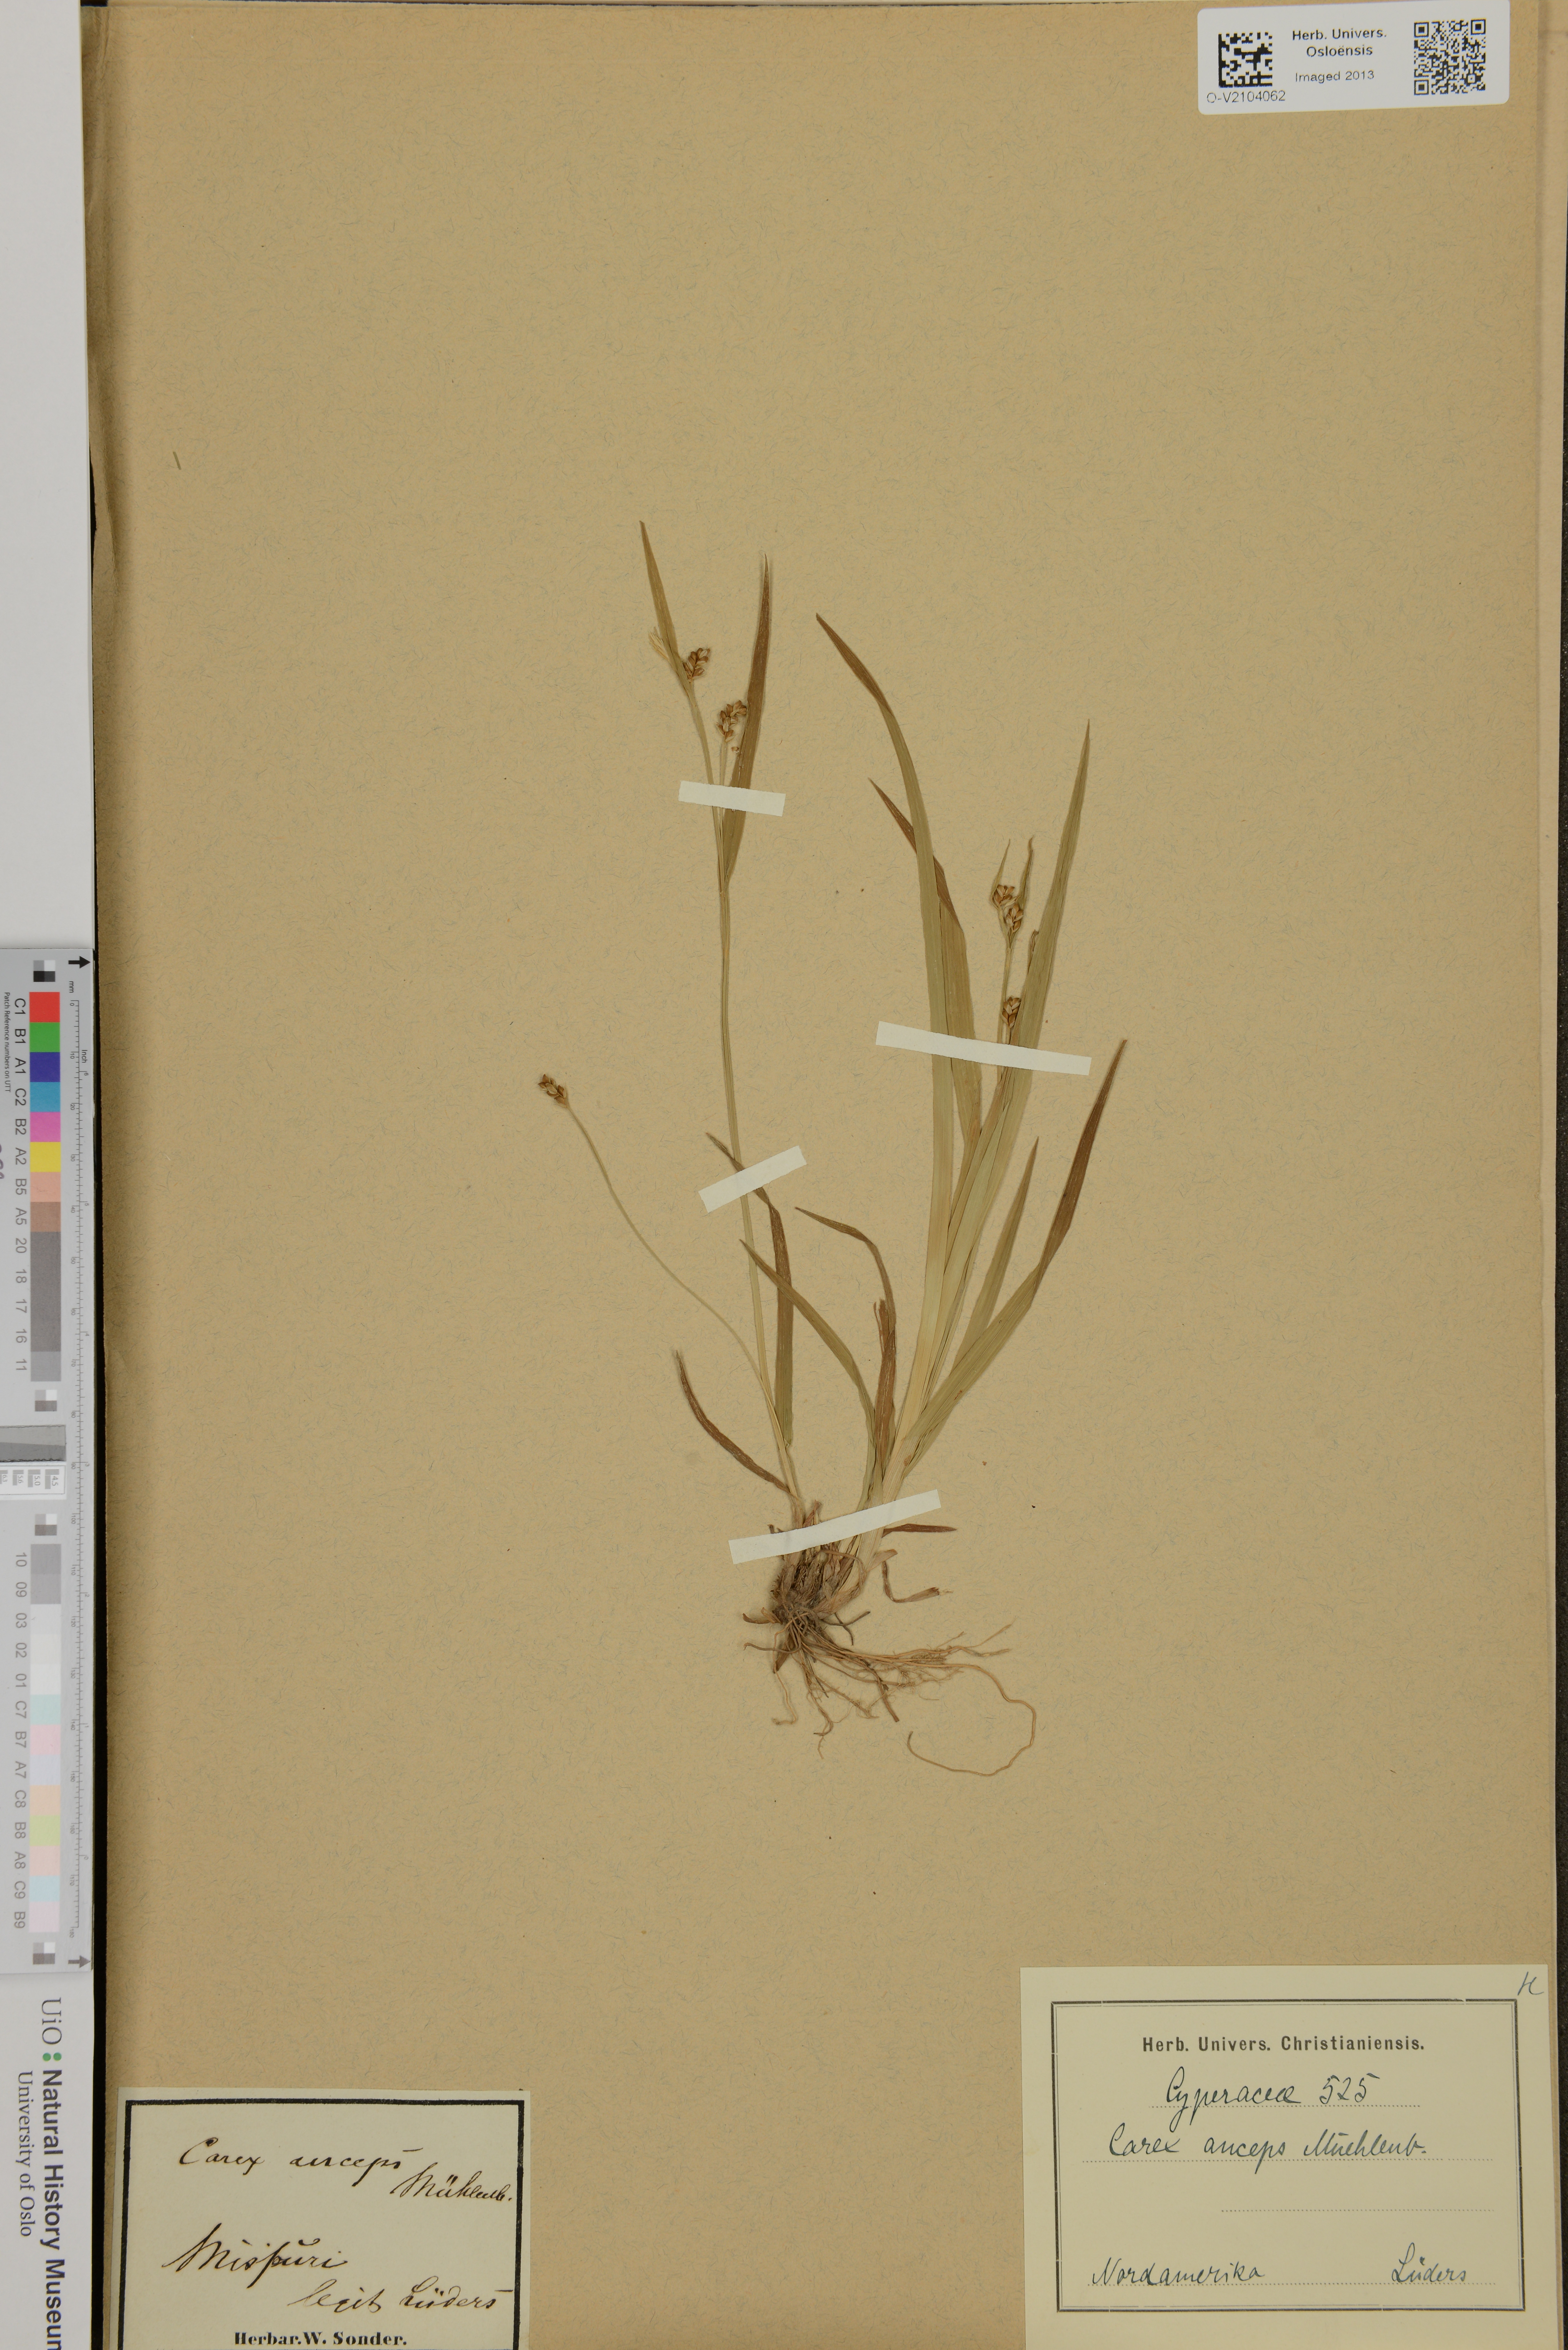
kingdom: Plantae
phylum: Tracheophyta
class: Liliopsida
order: Poales
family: Cyperaceae
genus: Carex
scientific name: Carex
